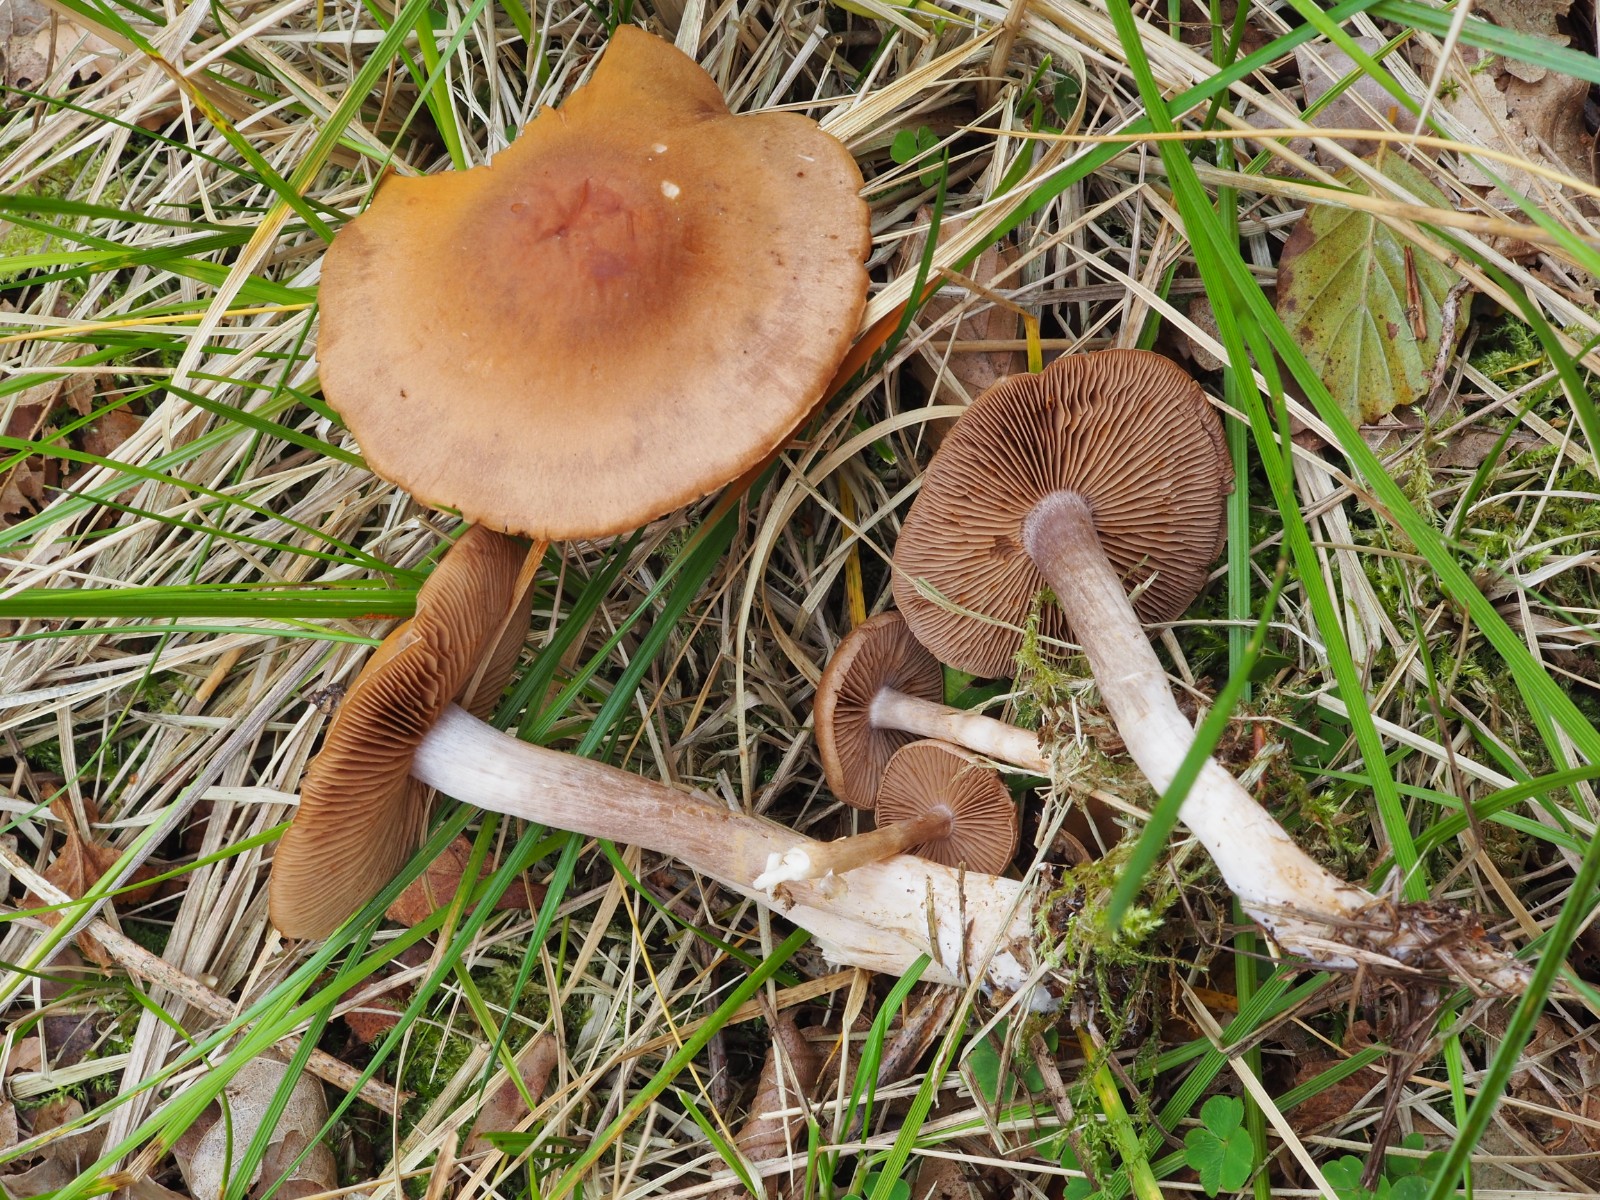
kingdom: Fungi
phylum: Basidiomycota
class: Agaricomycetes
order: Agaricales
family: Cortinariaceae
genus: Cortinarius
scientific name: Cortinarius
